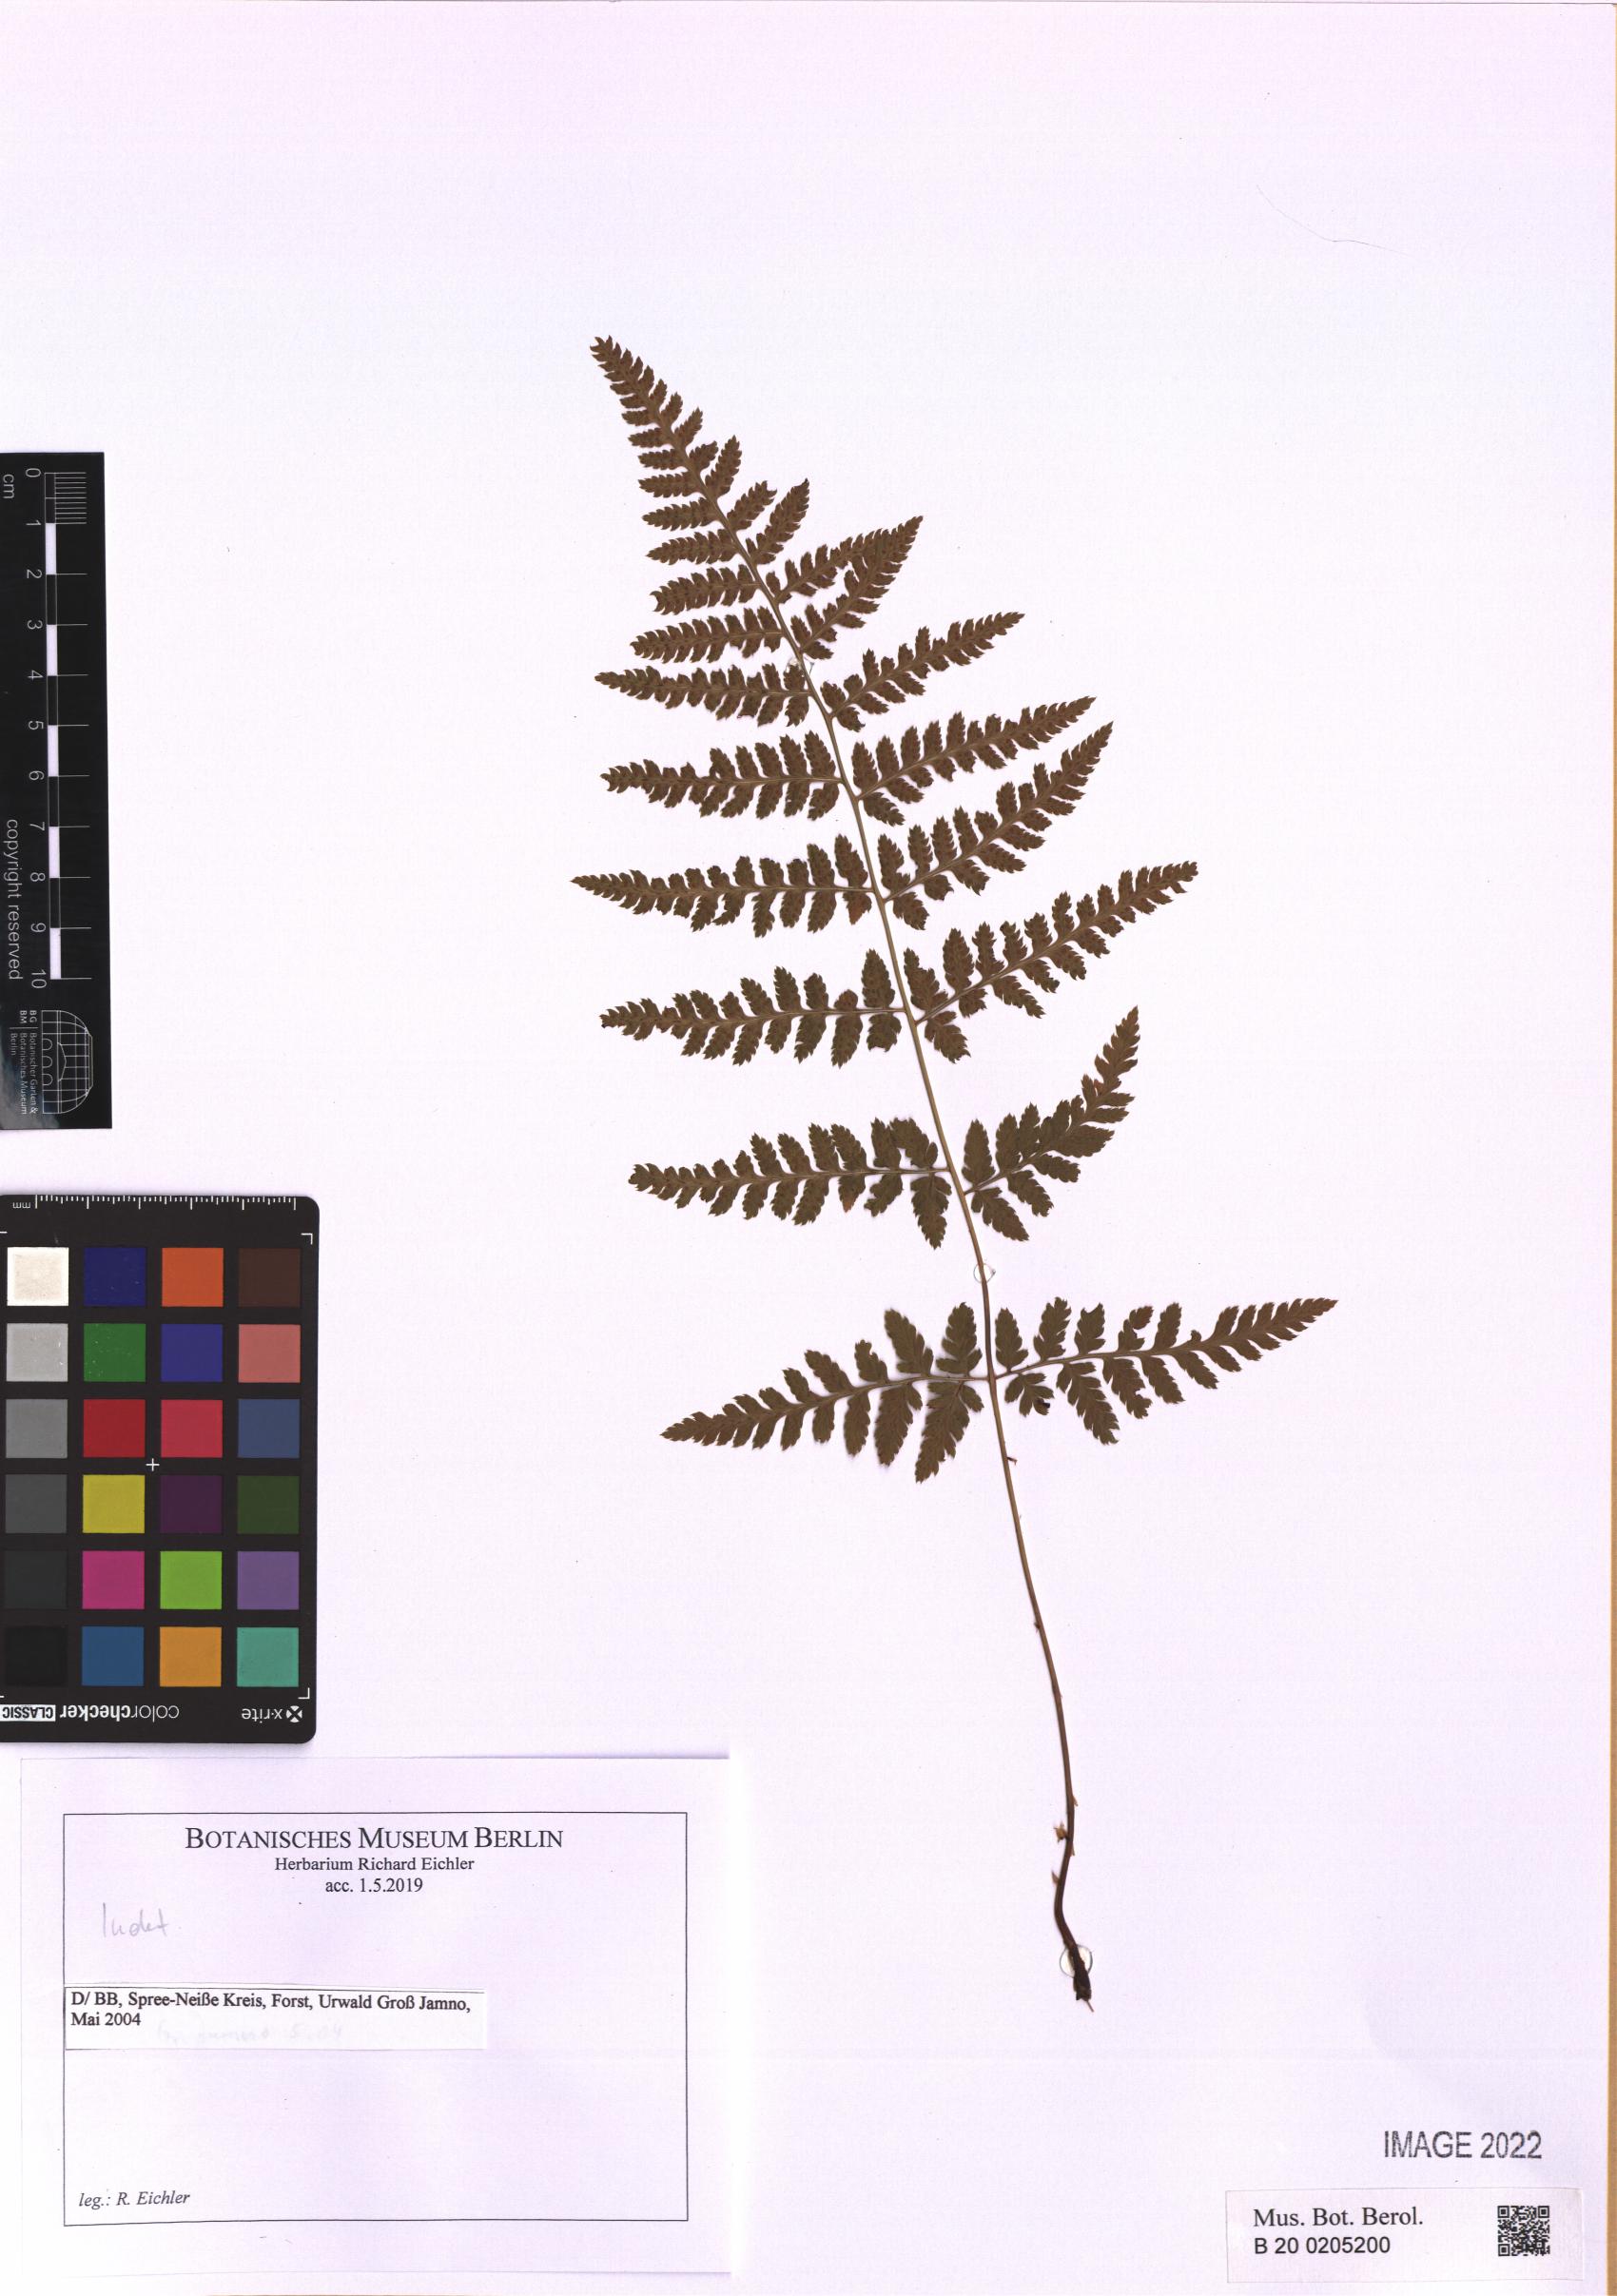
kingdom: Plantae
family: Pteridophyta
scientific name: Pteridophyta
